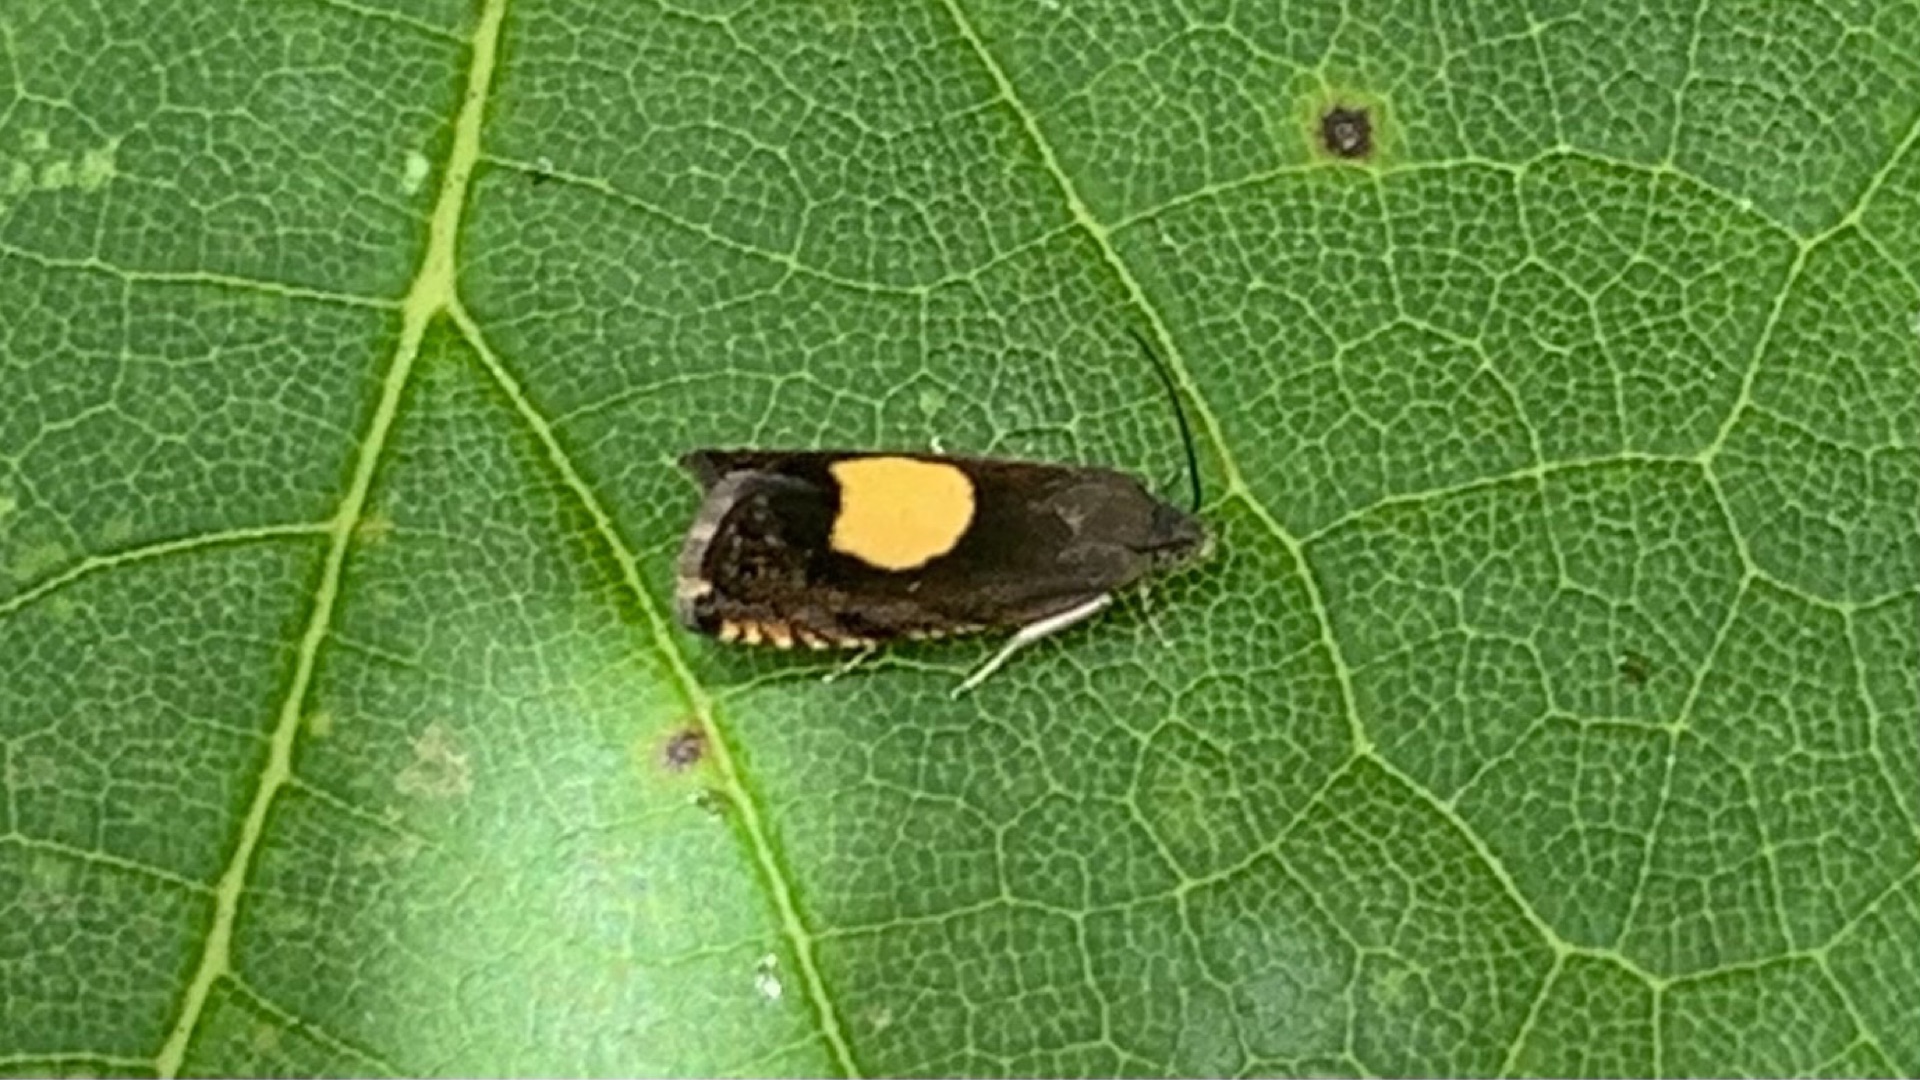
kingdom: Animalia
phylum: Arthropoda
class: Insecta
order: Lepidoptera
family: Tortricidae
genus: Pammene
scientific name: Pammene regiana
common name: Ahornsolvikler
